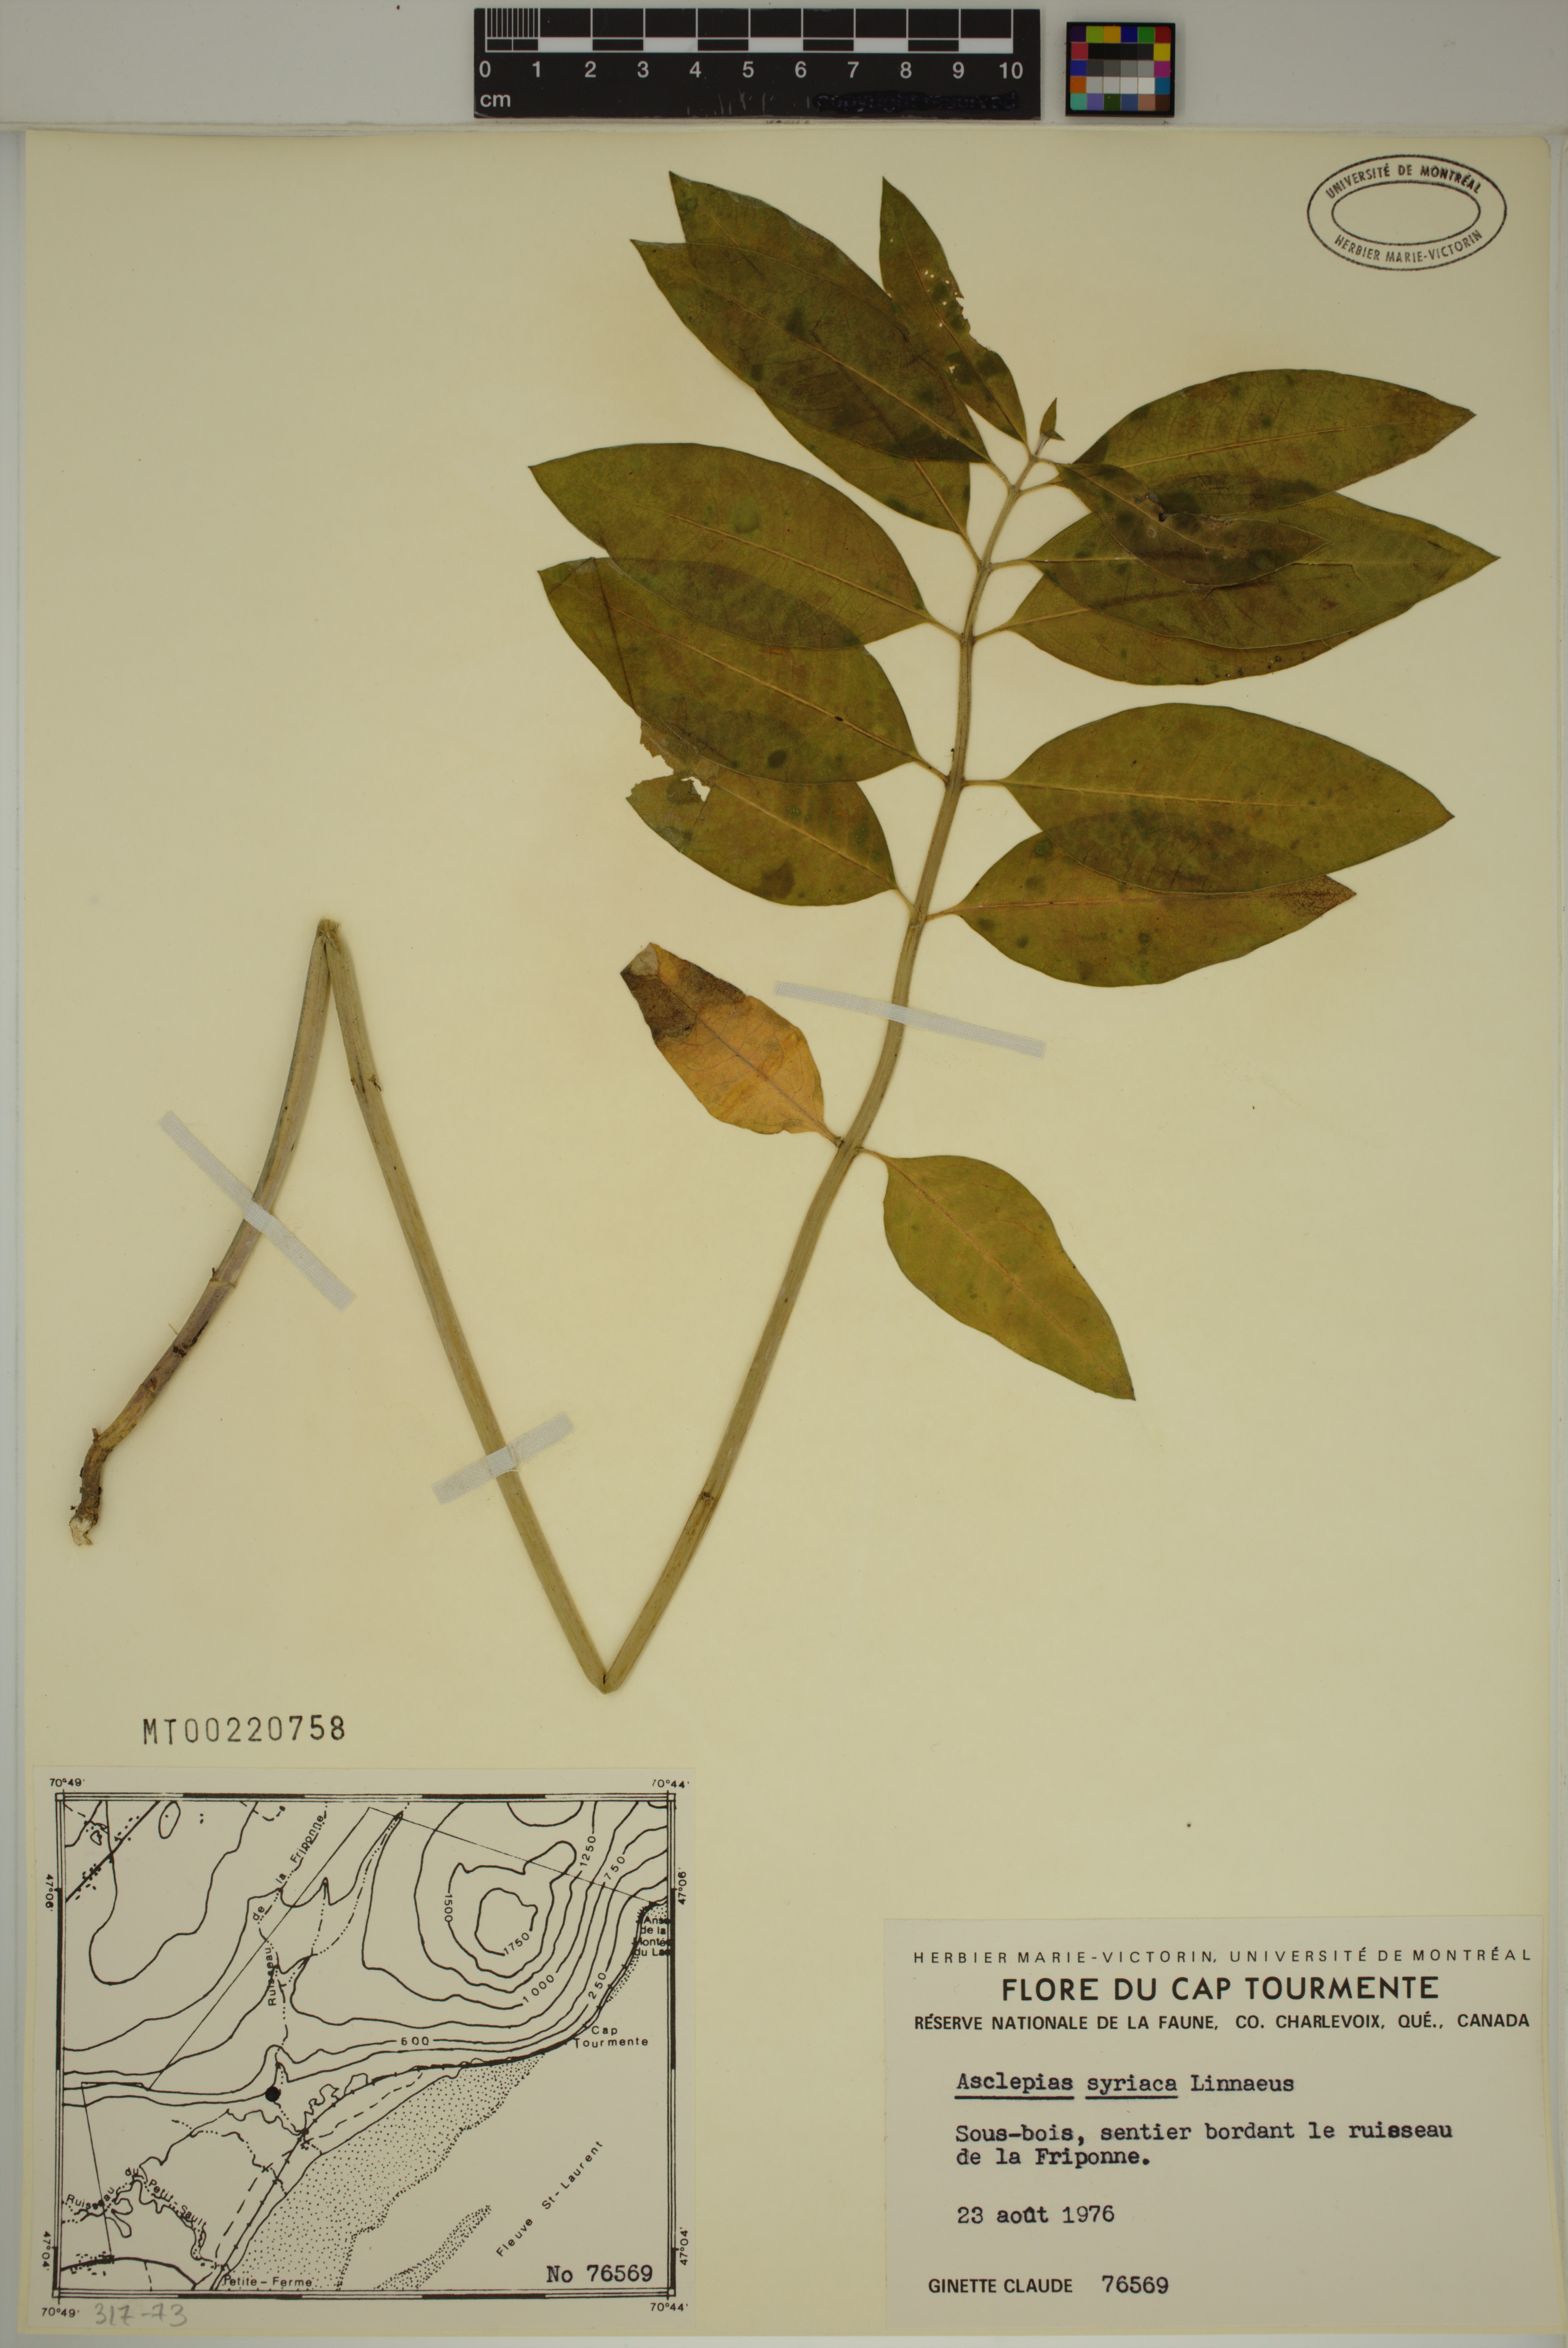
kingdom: Plantae
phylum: Tracheophyta
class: Magnoliopsida
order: Gentianales
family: Apocynaceae
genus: Asclepias
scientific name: Asclepias syriaca
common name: Common milkweed
